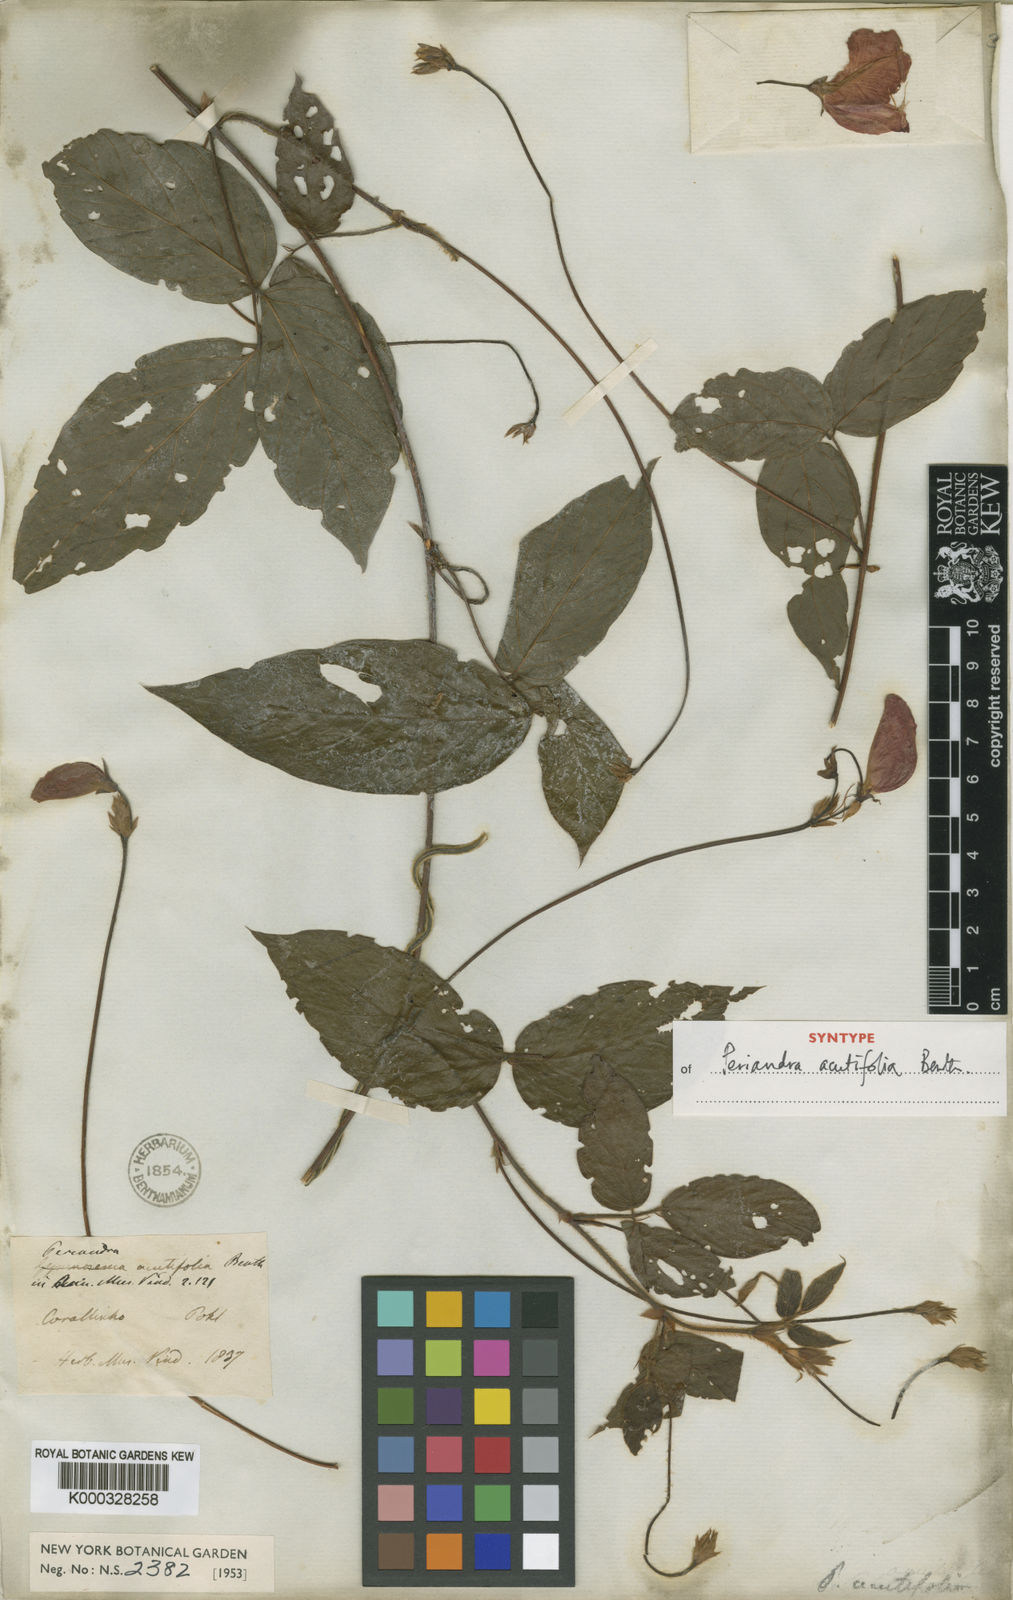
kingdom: Plantae
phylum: Tracheophyta
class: Magnoliopsida
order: Fabales
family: Fabaceae
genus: Periandra
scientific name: Periandra coccinea
